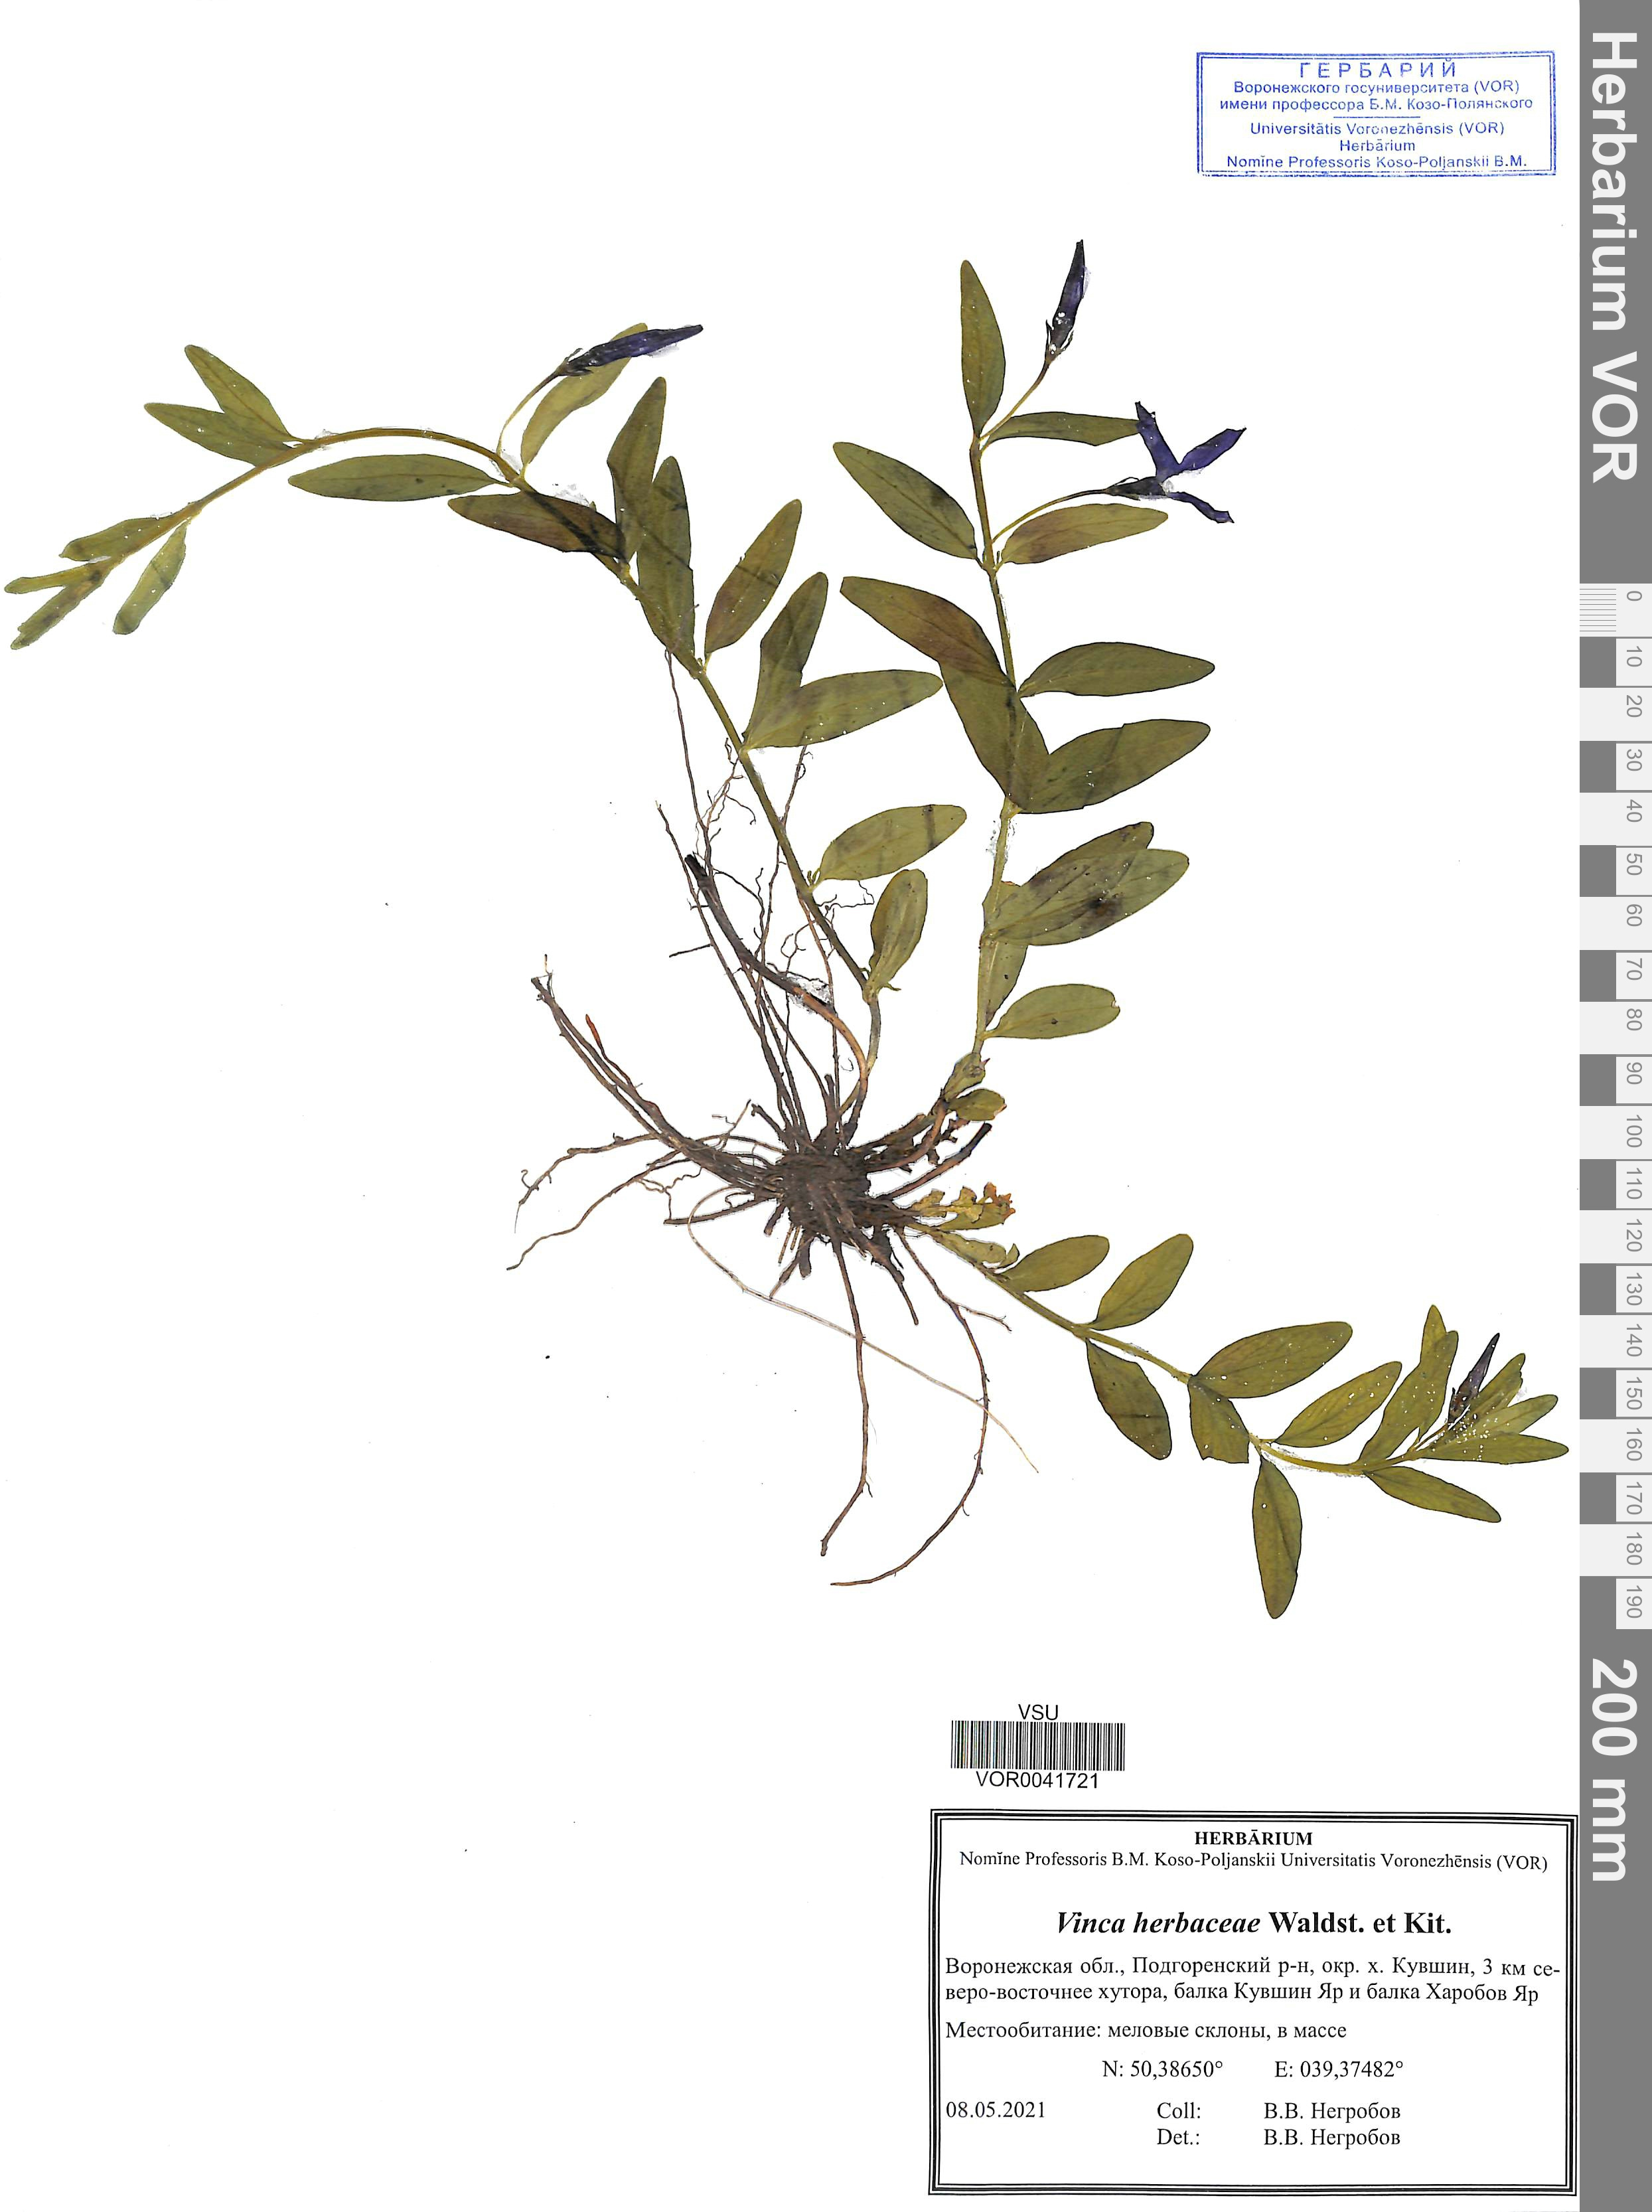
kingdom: Plantae
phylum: Tracheophyta
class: Magnoliopsida
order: Gentianales
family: Apocynaceae
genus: Vinca
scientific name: Vinca herbacea
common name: Herbaceous periwinkle
